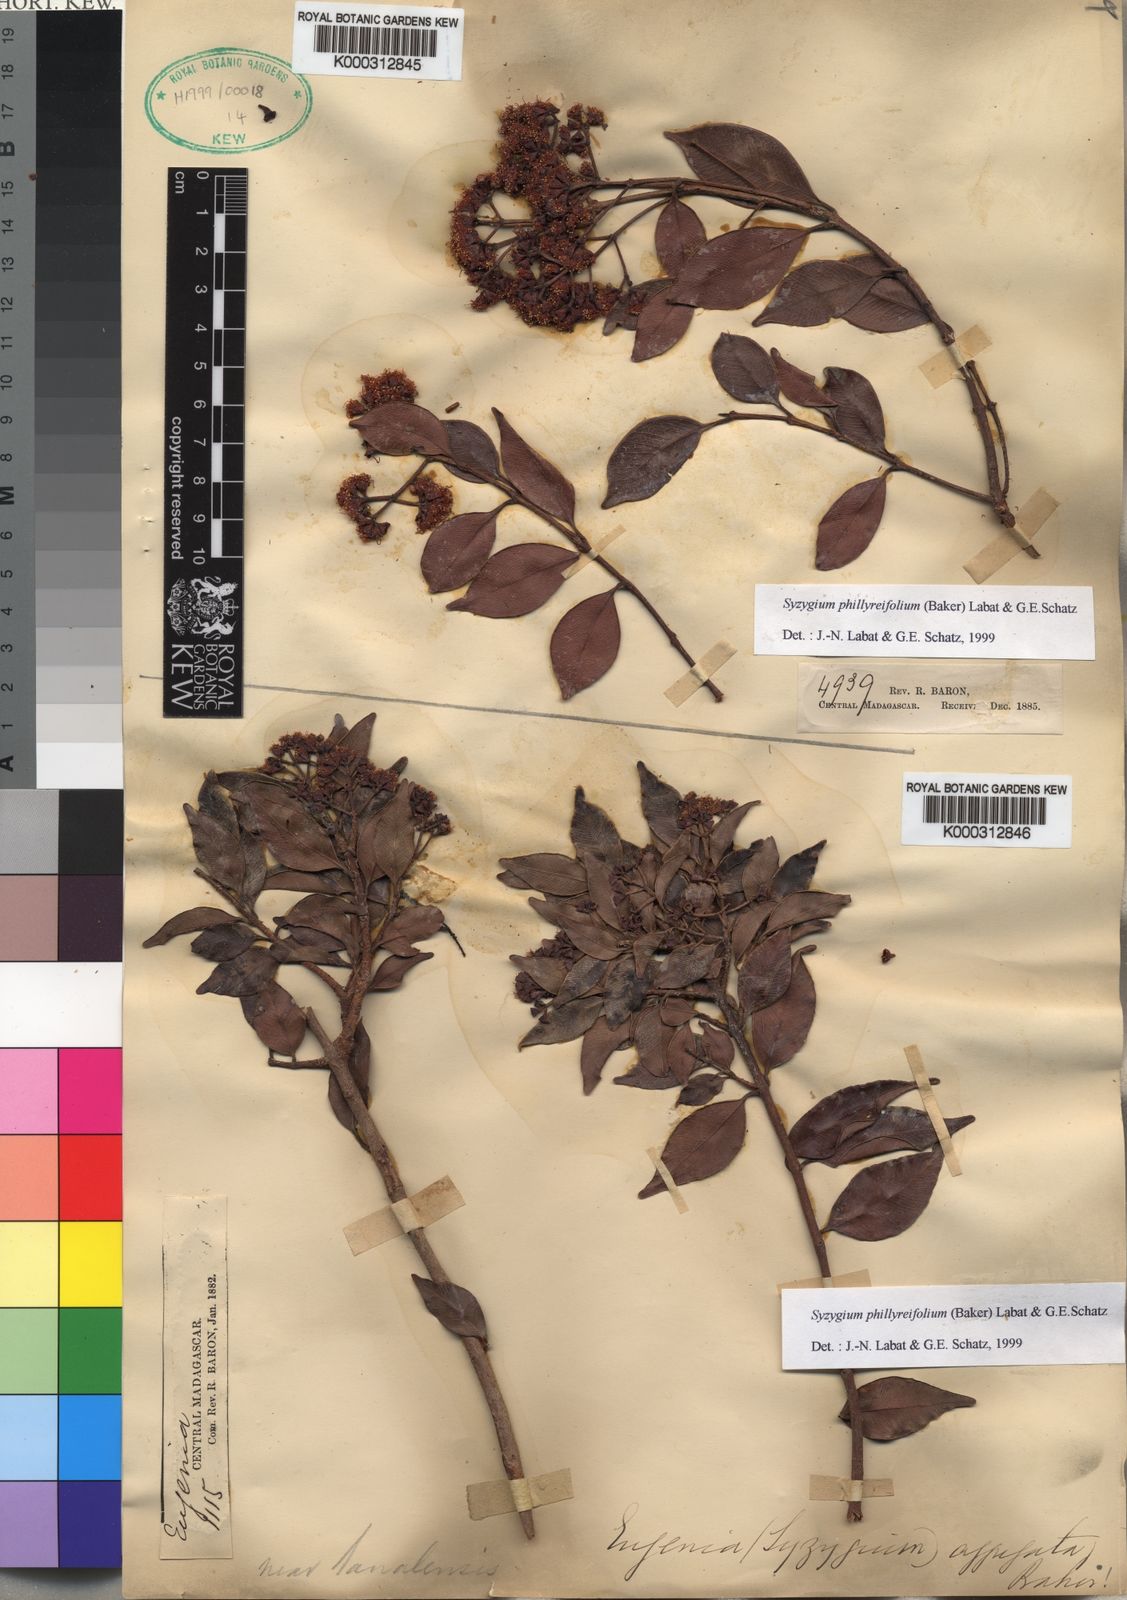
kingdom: Plantae
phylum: Tracheophyta
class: Magnoliopsida
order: Myrtales
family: Myrtaceae
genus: Syzygium
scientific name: Syzygium condensatum
